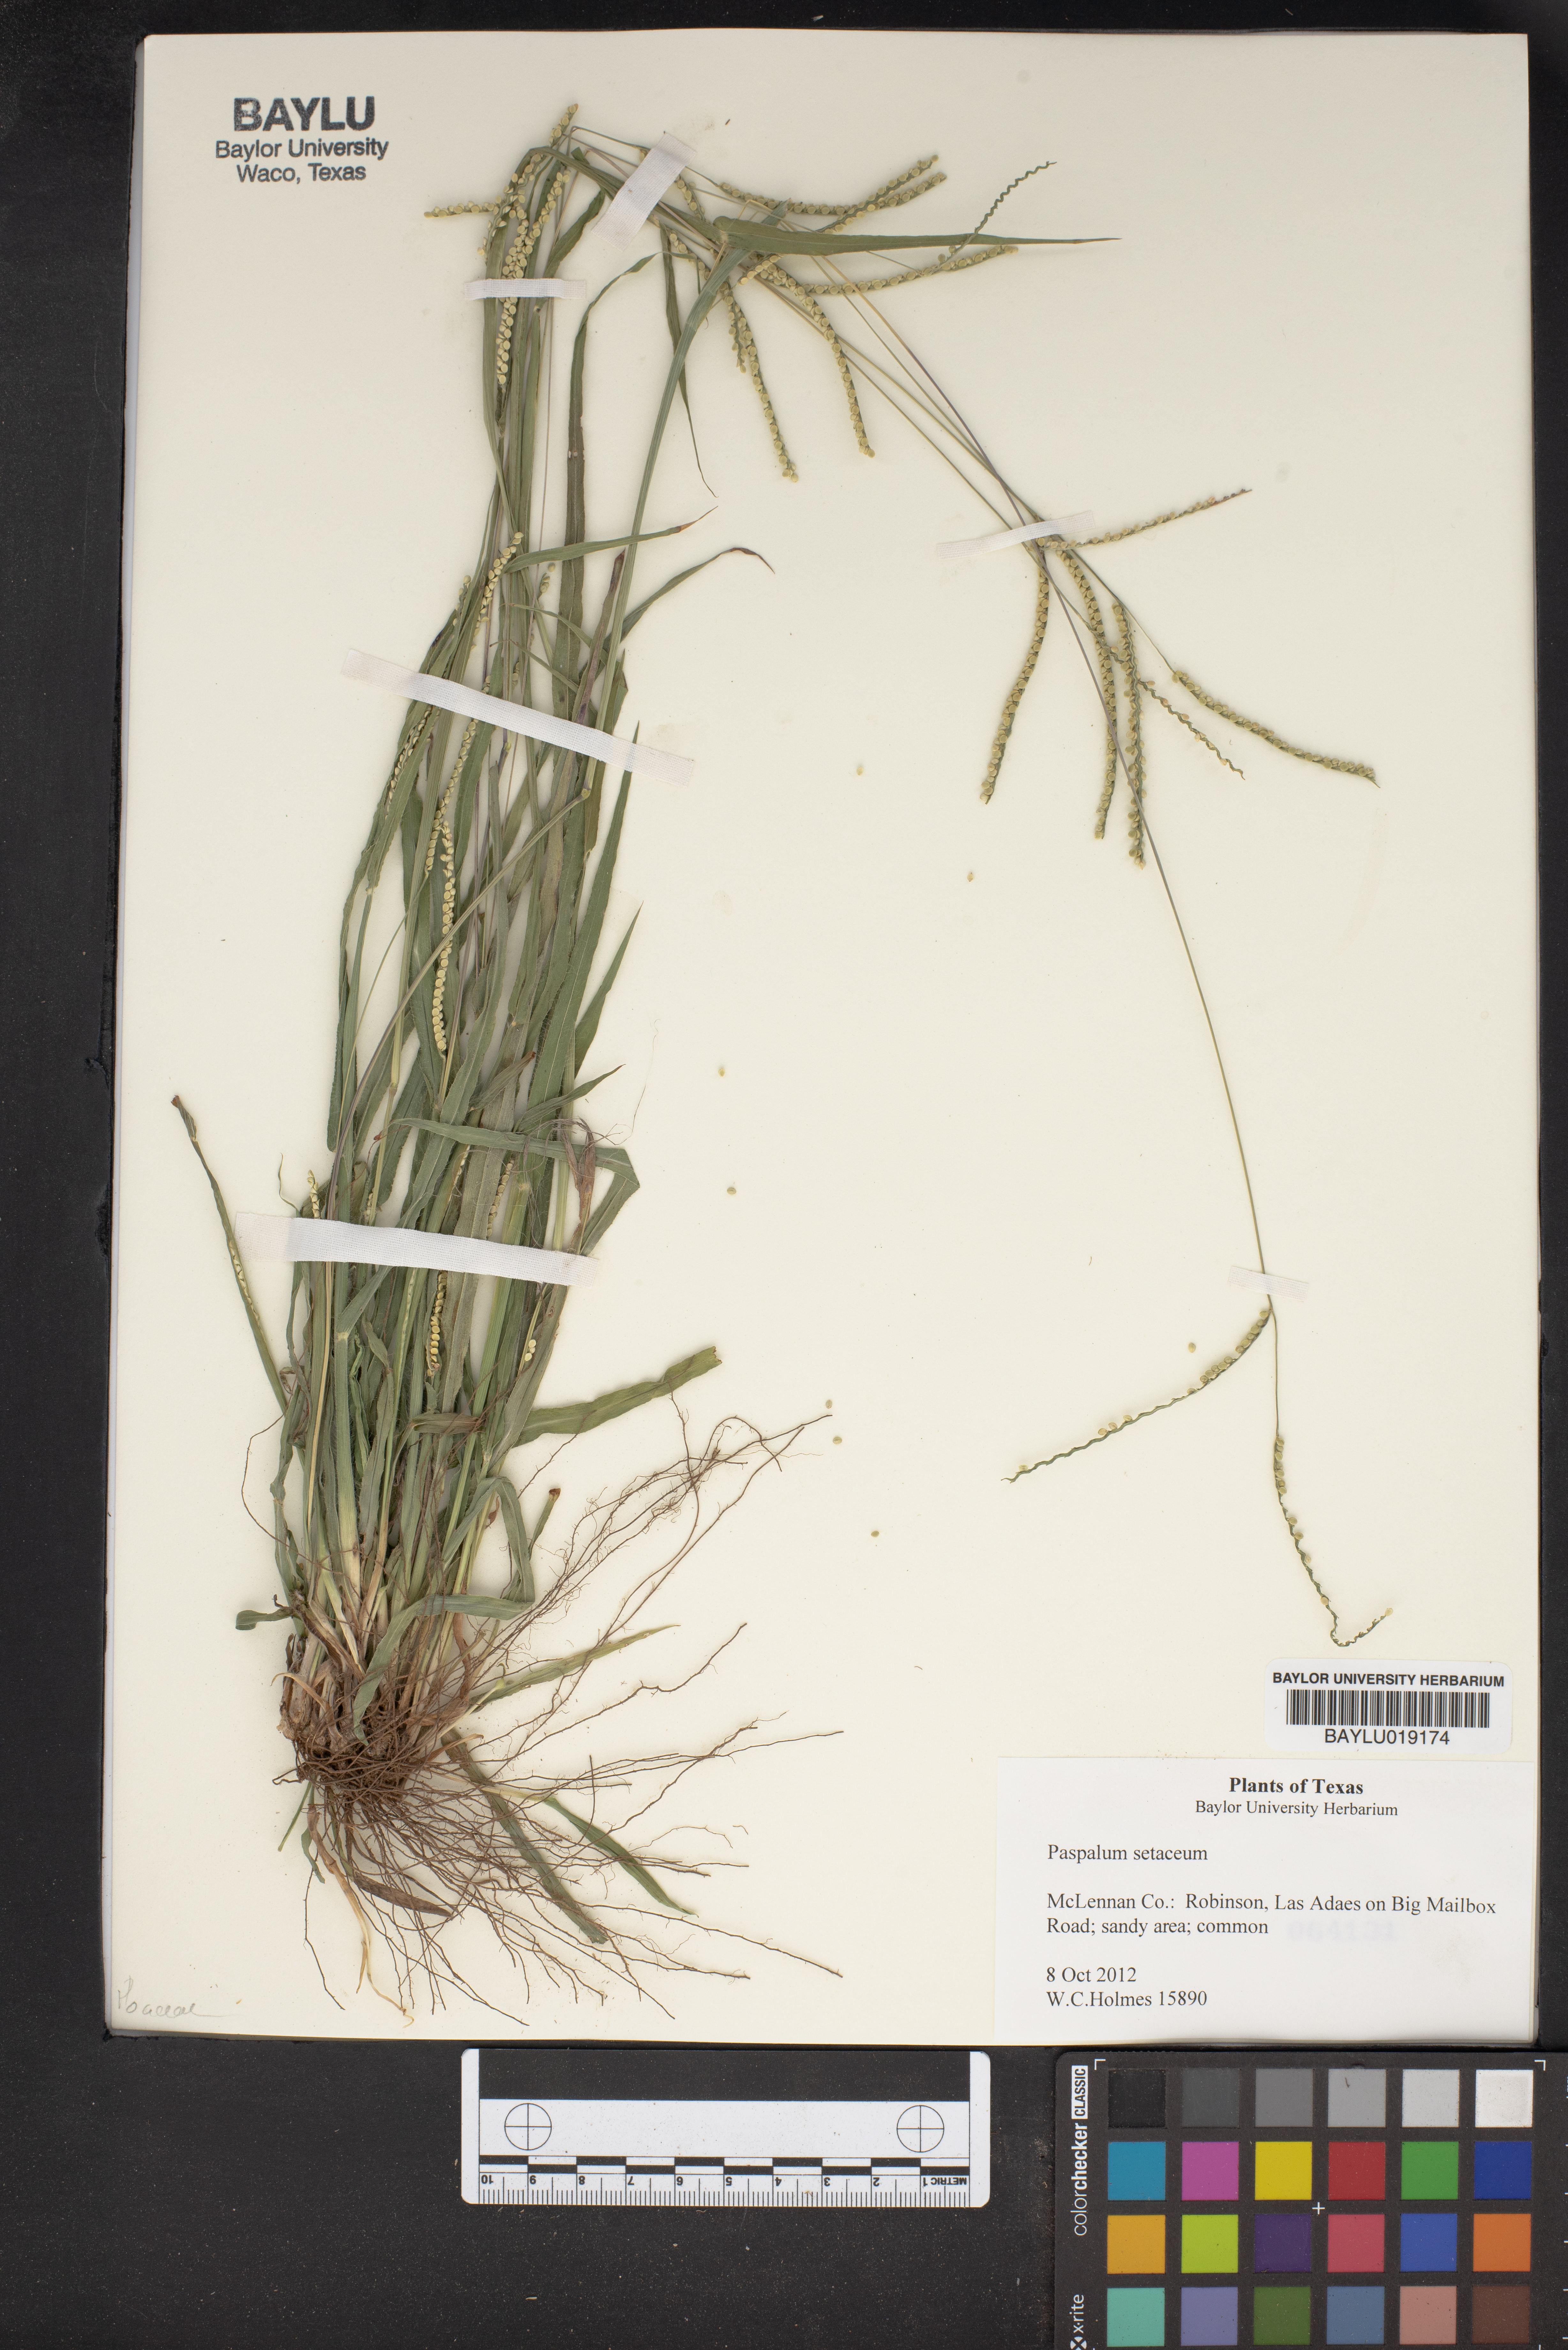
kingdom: Plantae
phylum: Tracheophyta
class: Liliopsida
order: Poales
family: Poaceae
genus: Paspalum
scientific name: Paspalum setaceum
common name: Slender paspalum
